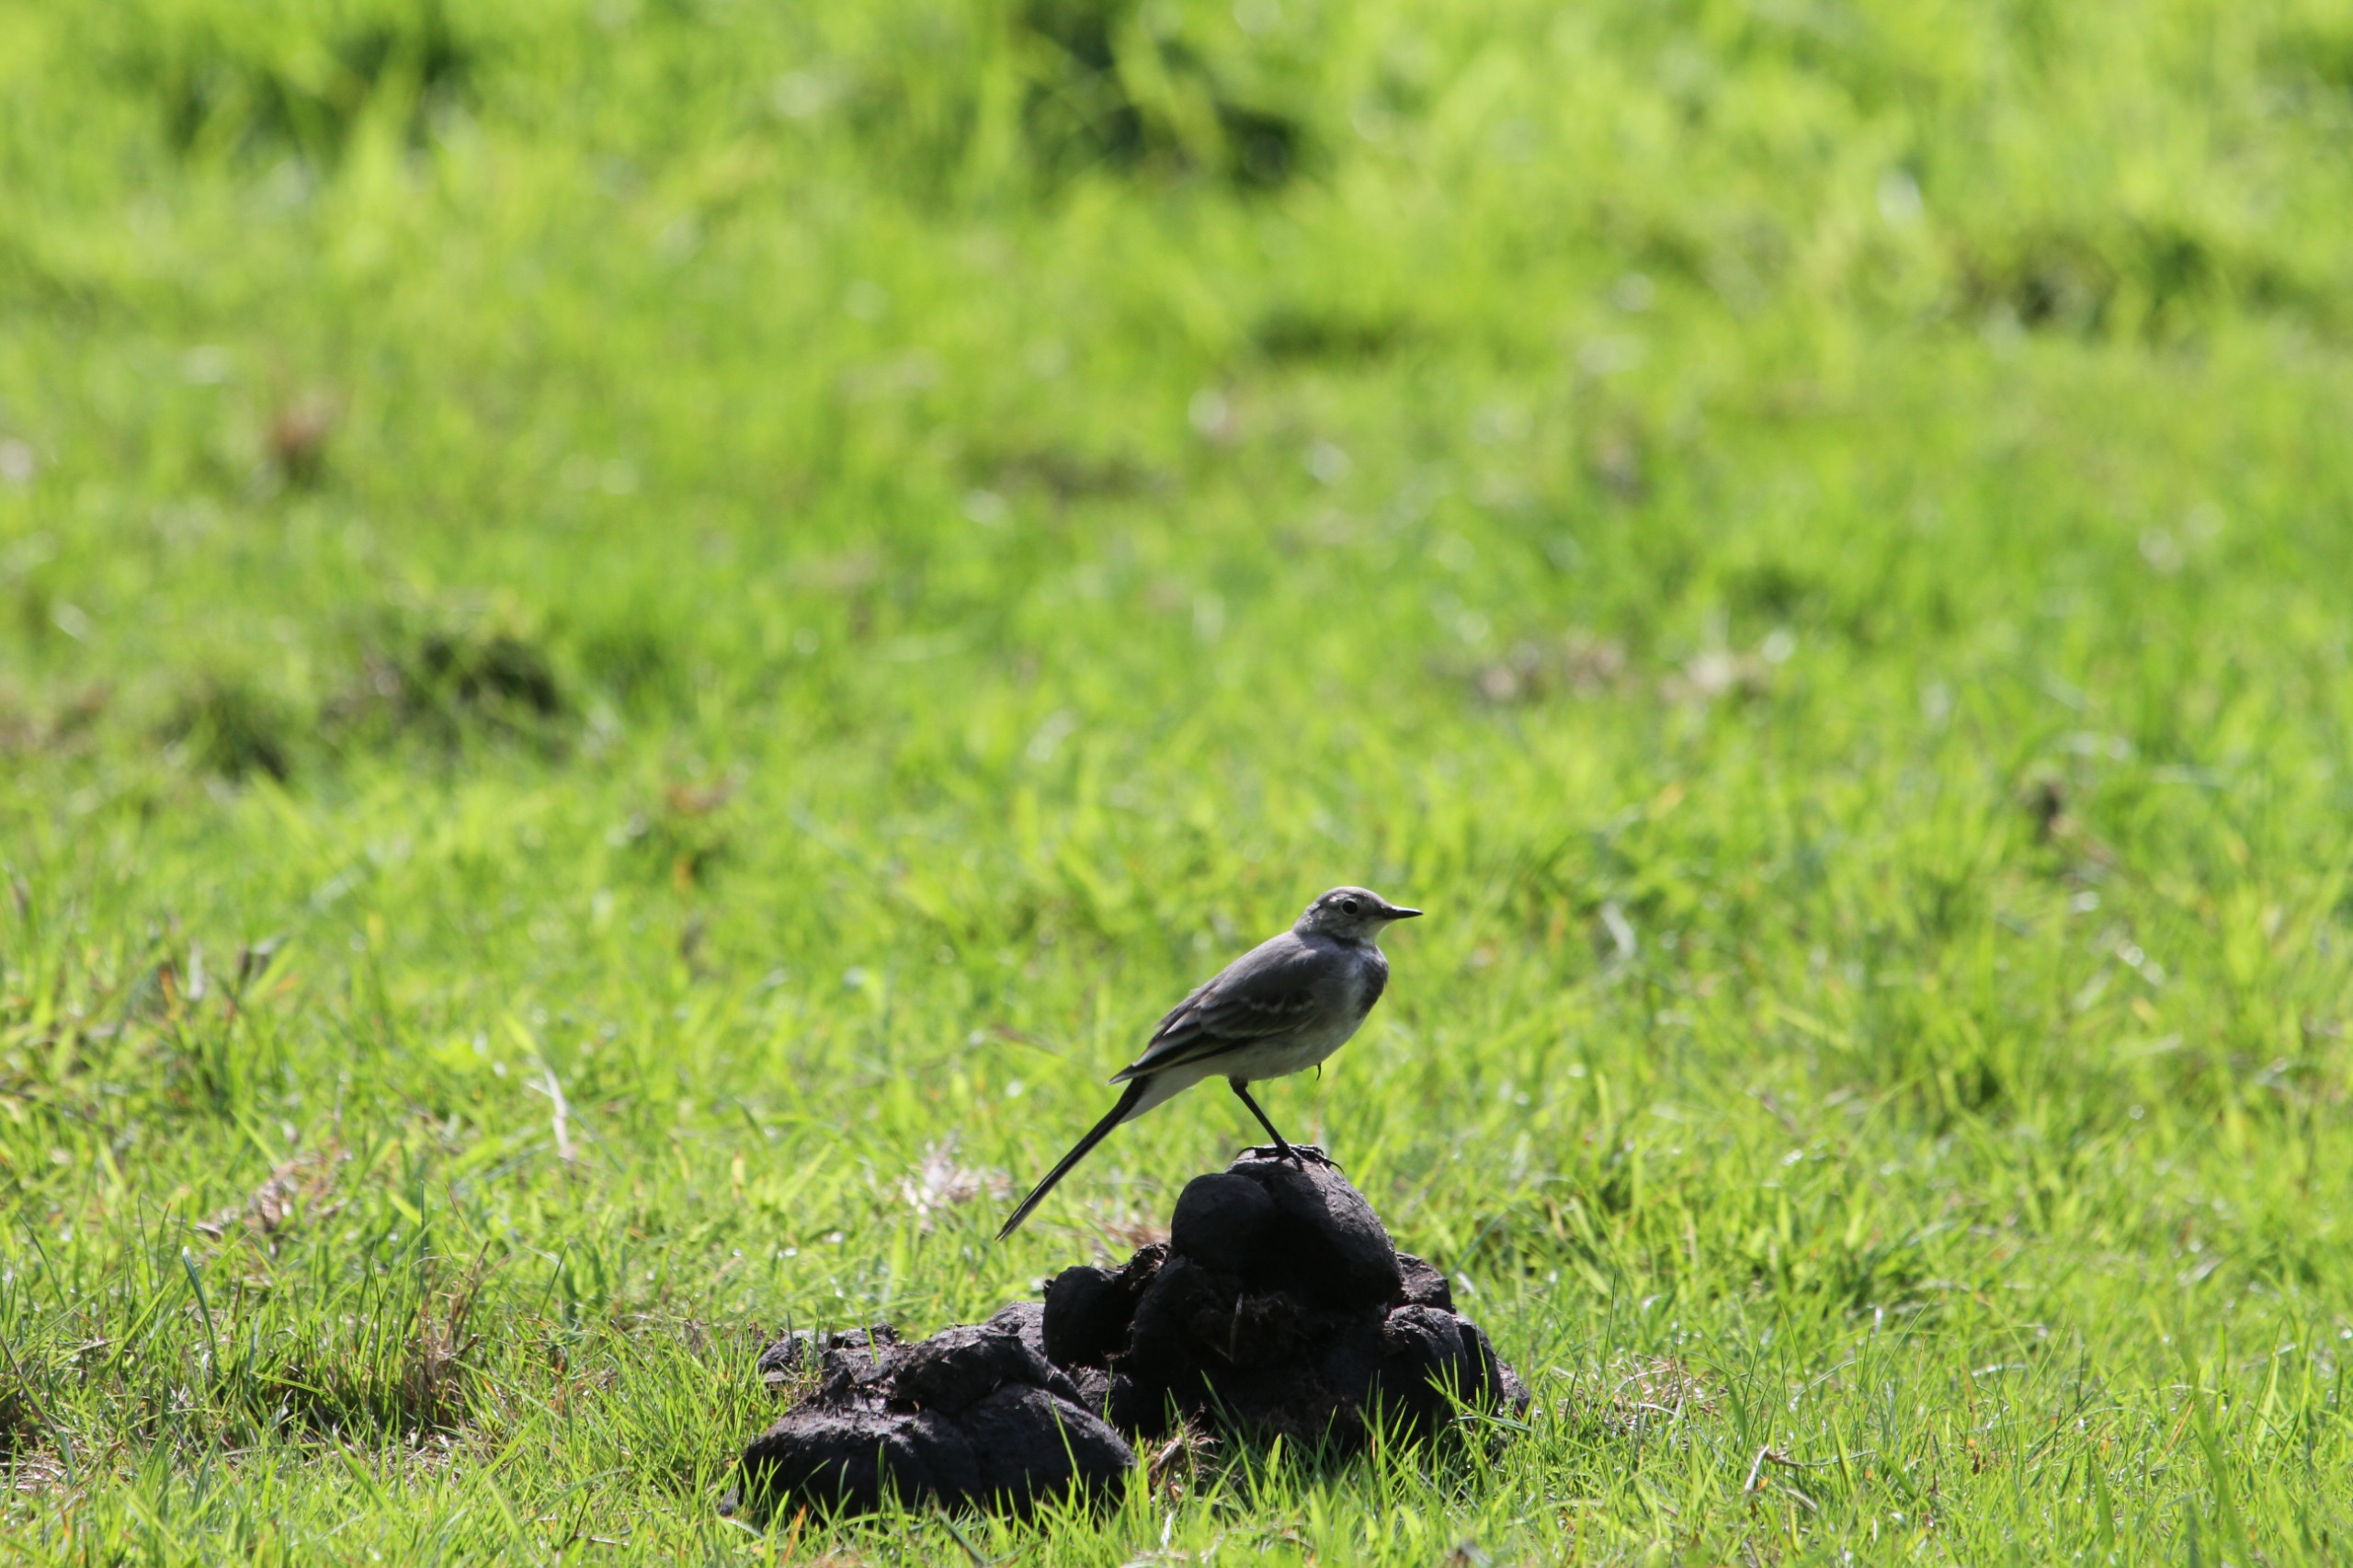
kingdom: Animalia
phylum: Chordata
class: Aves
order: Passeriformes
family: Motacillidae
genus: Motacilla
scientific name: Motacilla alba
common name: Hvid vipstjert
